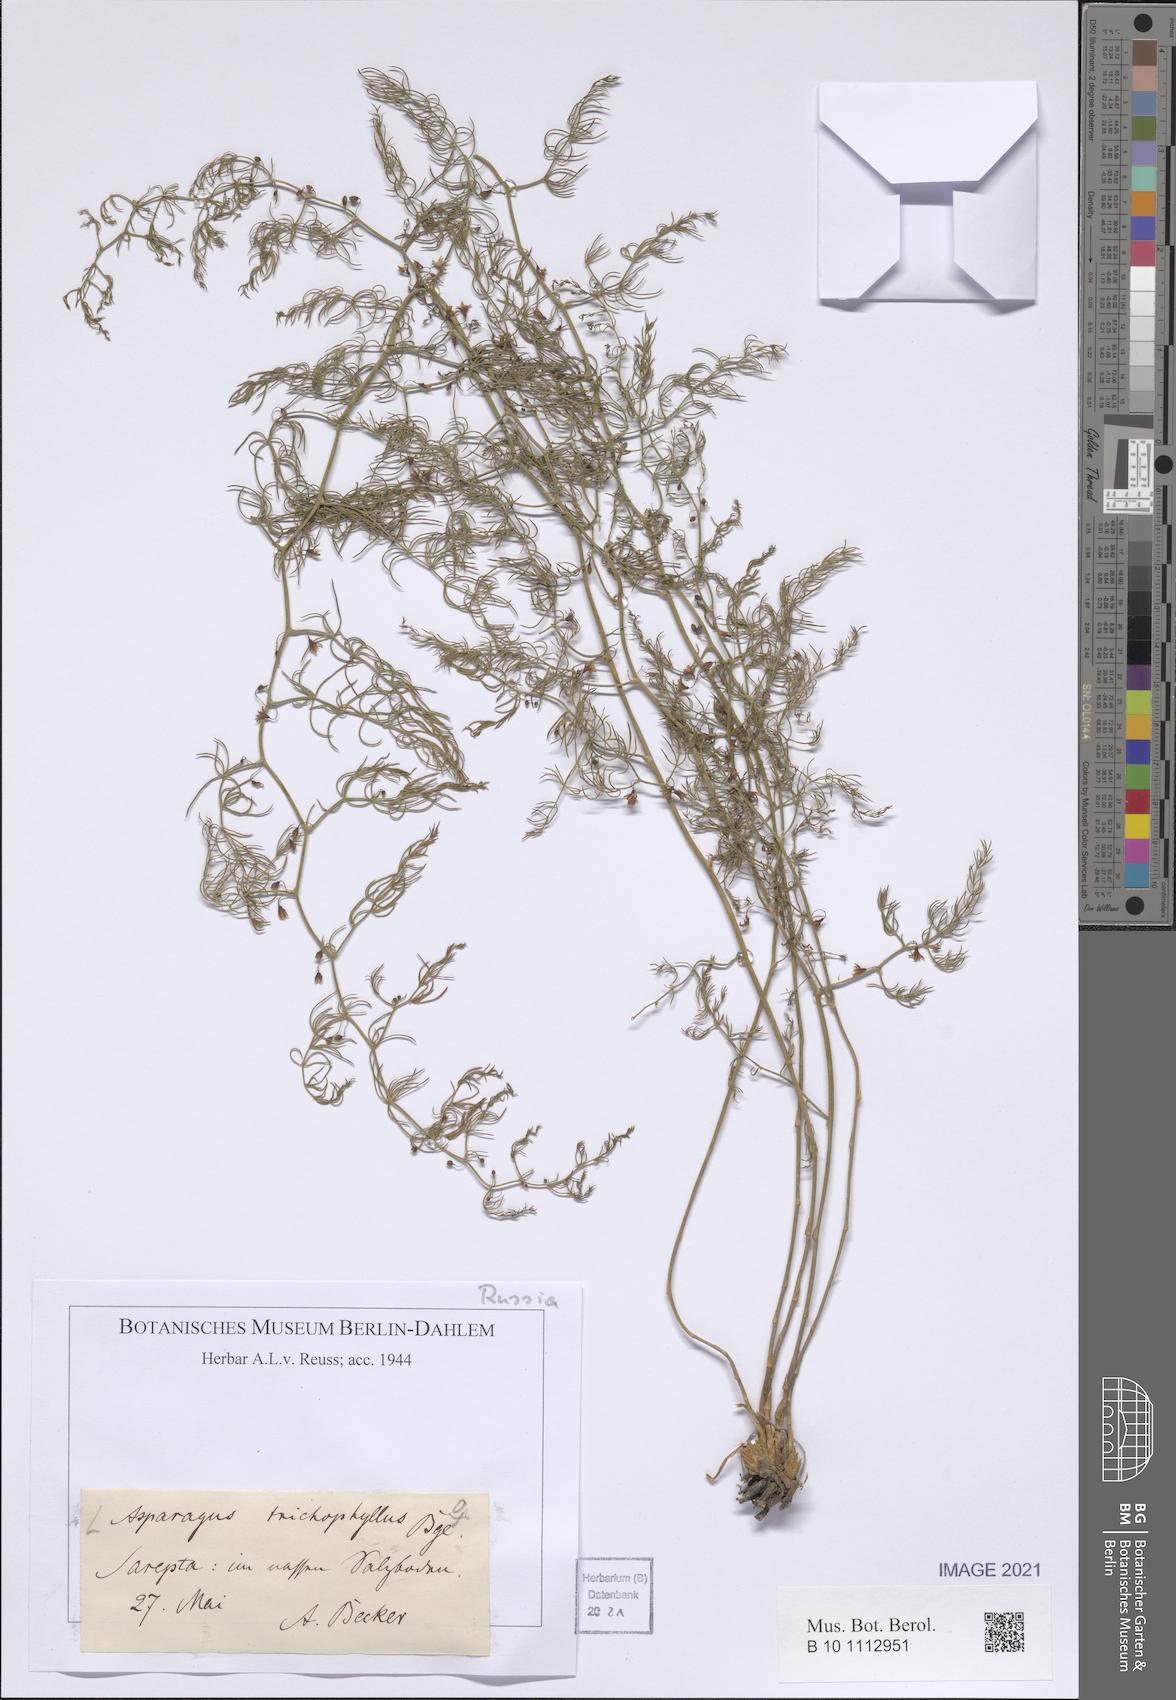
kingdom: Plantae
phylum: Tracheophyta
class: Liliopsida
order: Asparagales
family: Asparagaceae
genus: Asparagus
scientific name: Asparagus trichophyllus
